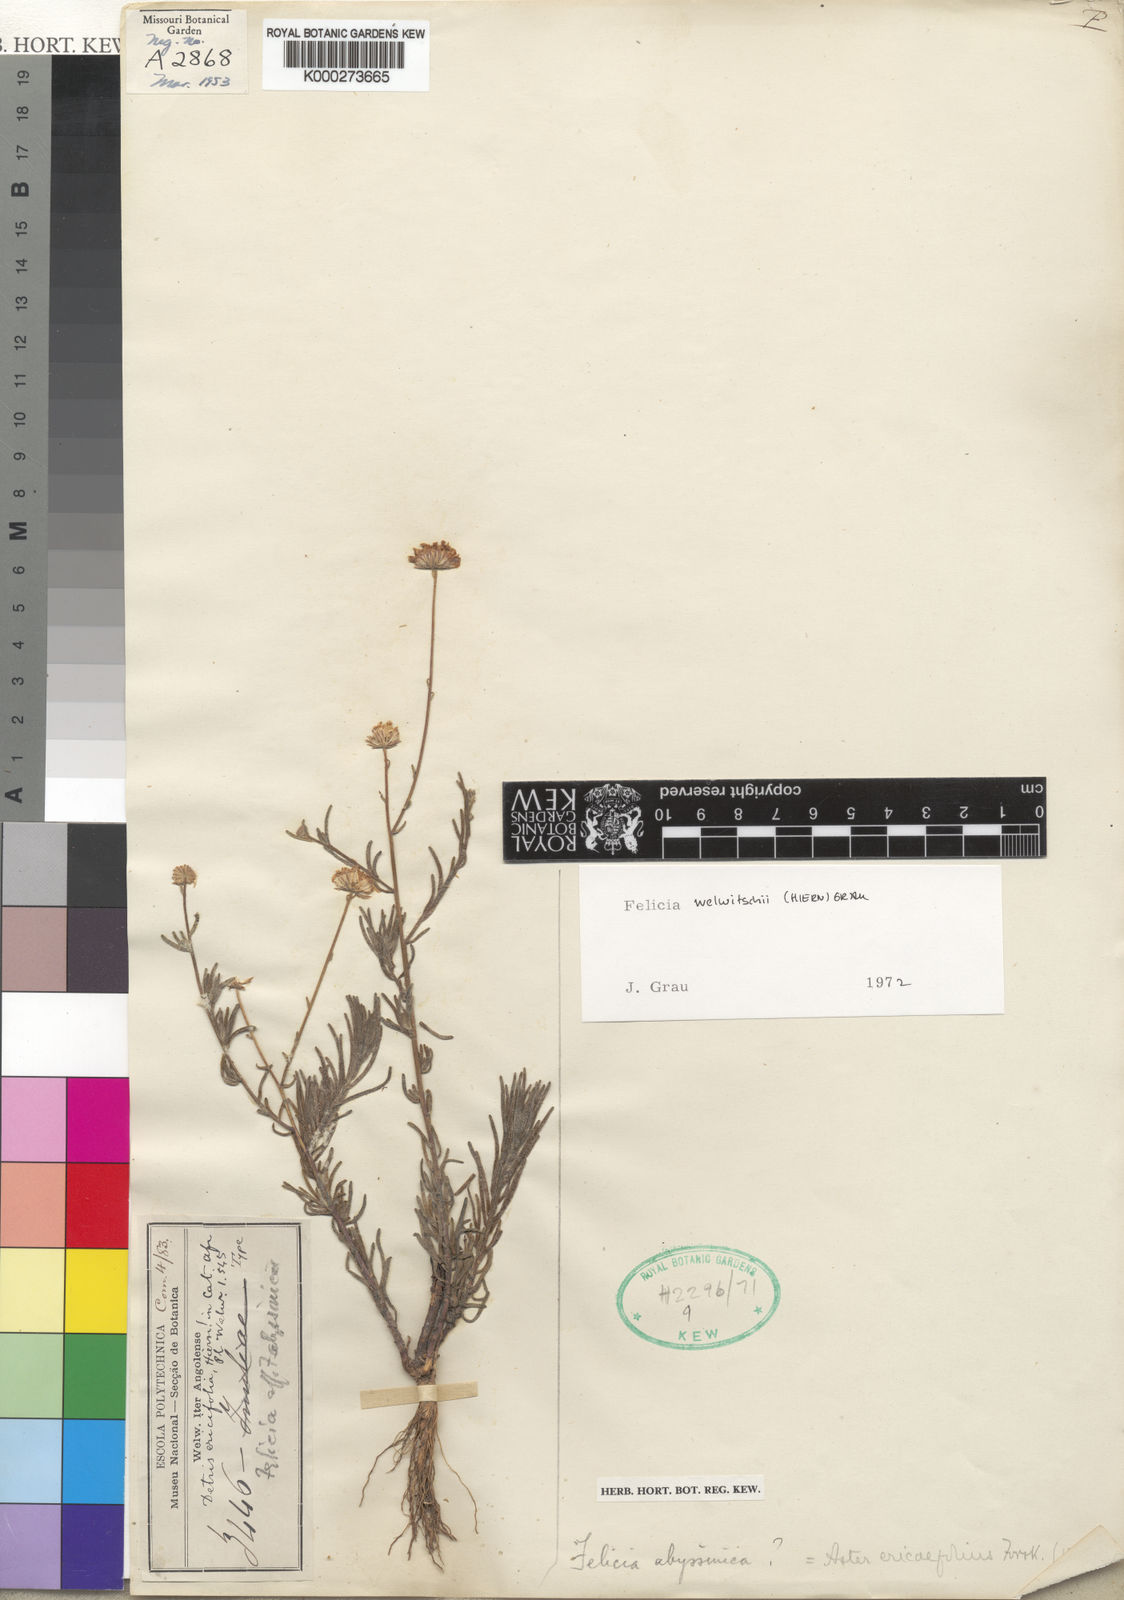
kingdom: Plantae
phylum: Tracheophyta
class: Magnoliopsida
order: Asterales
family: Asteraceae
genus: Felicia
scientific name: Felicia welwitschii
